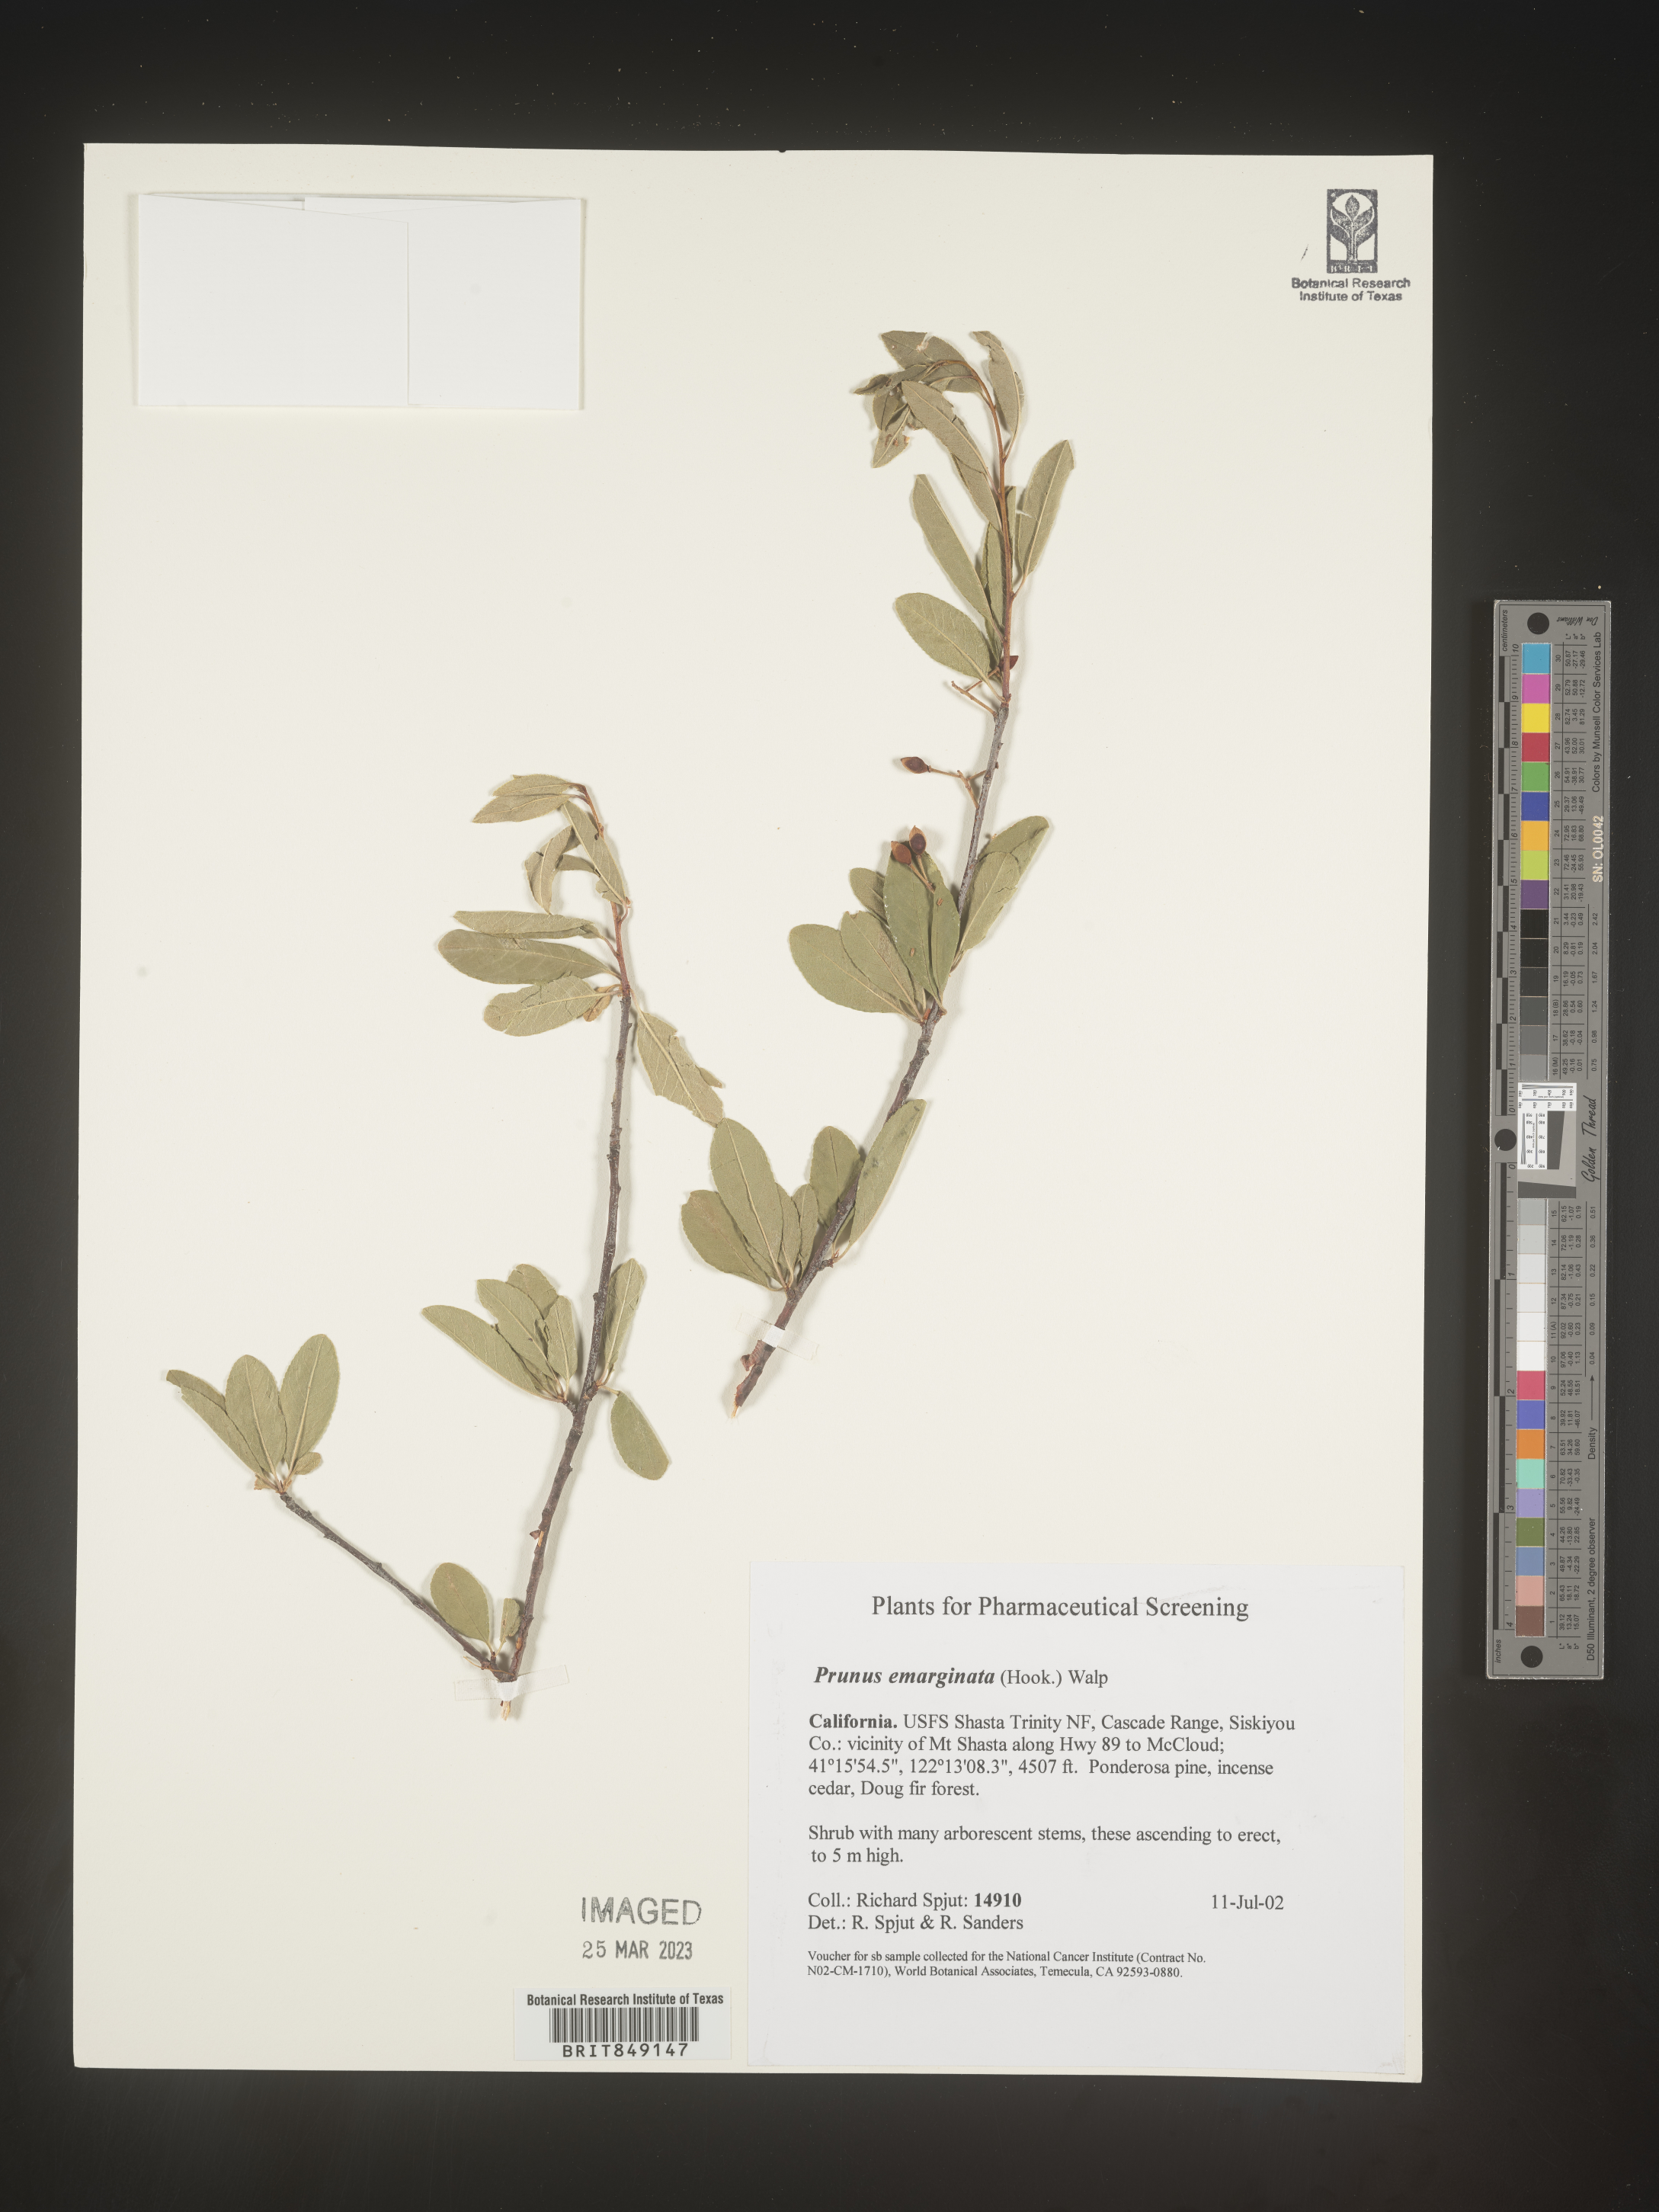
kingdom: Plantae
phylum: Tracheophyta
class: Magnoliopsida
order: Rosales
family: Rosaceae
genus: Prunus
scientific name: Prunus emarginata
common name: Bitter cherry
